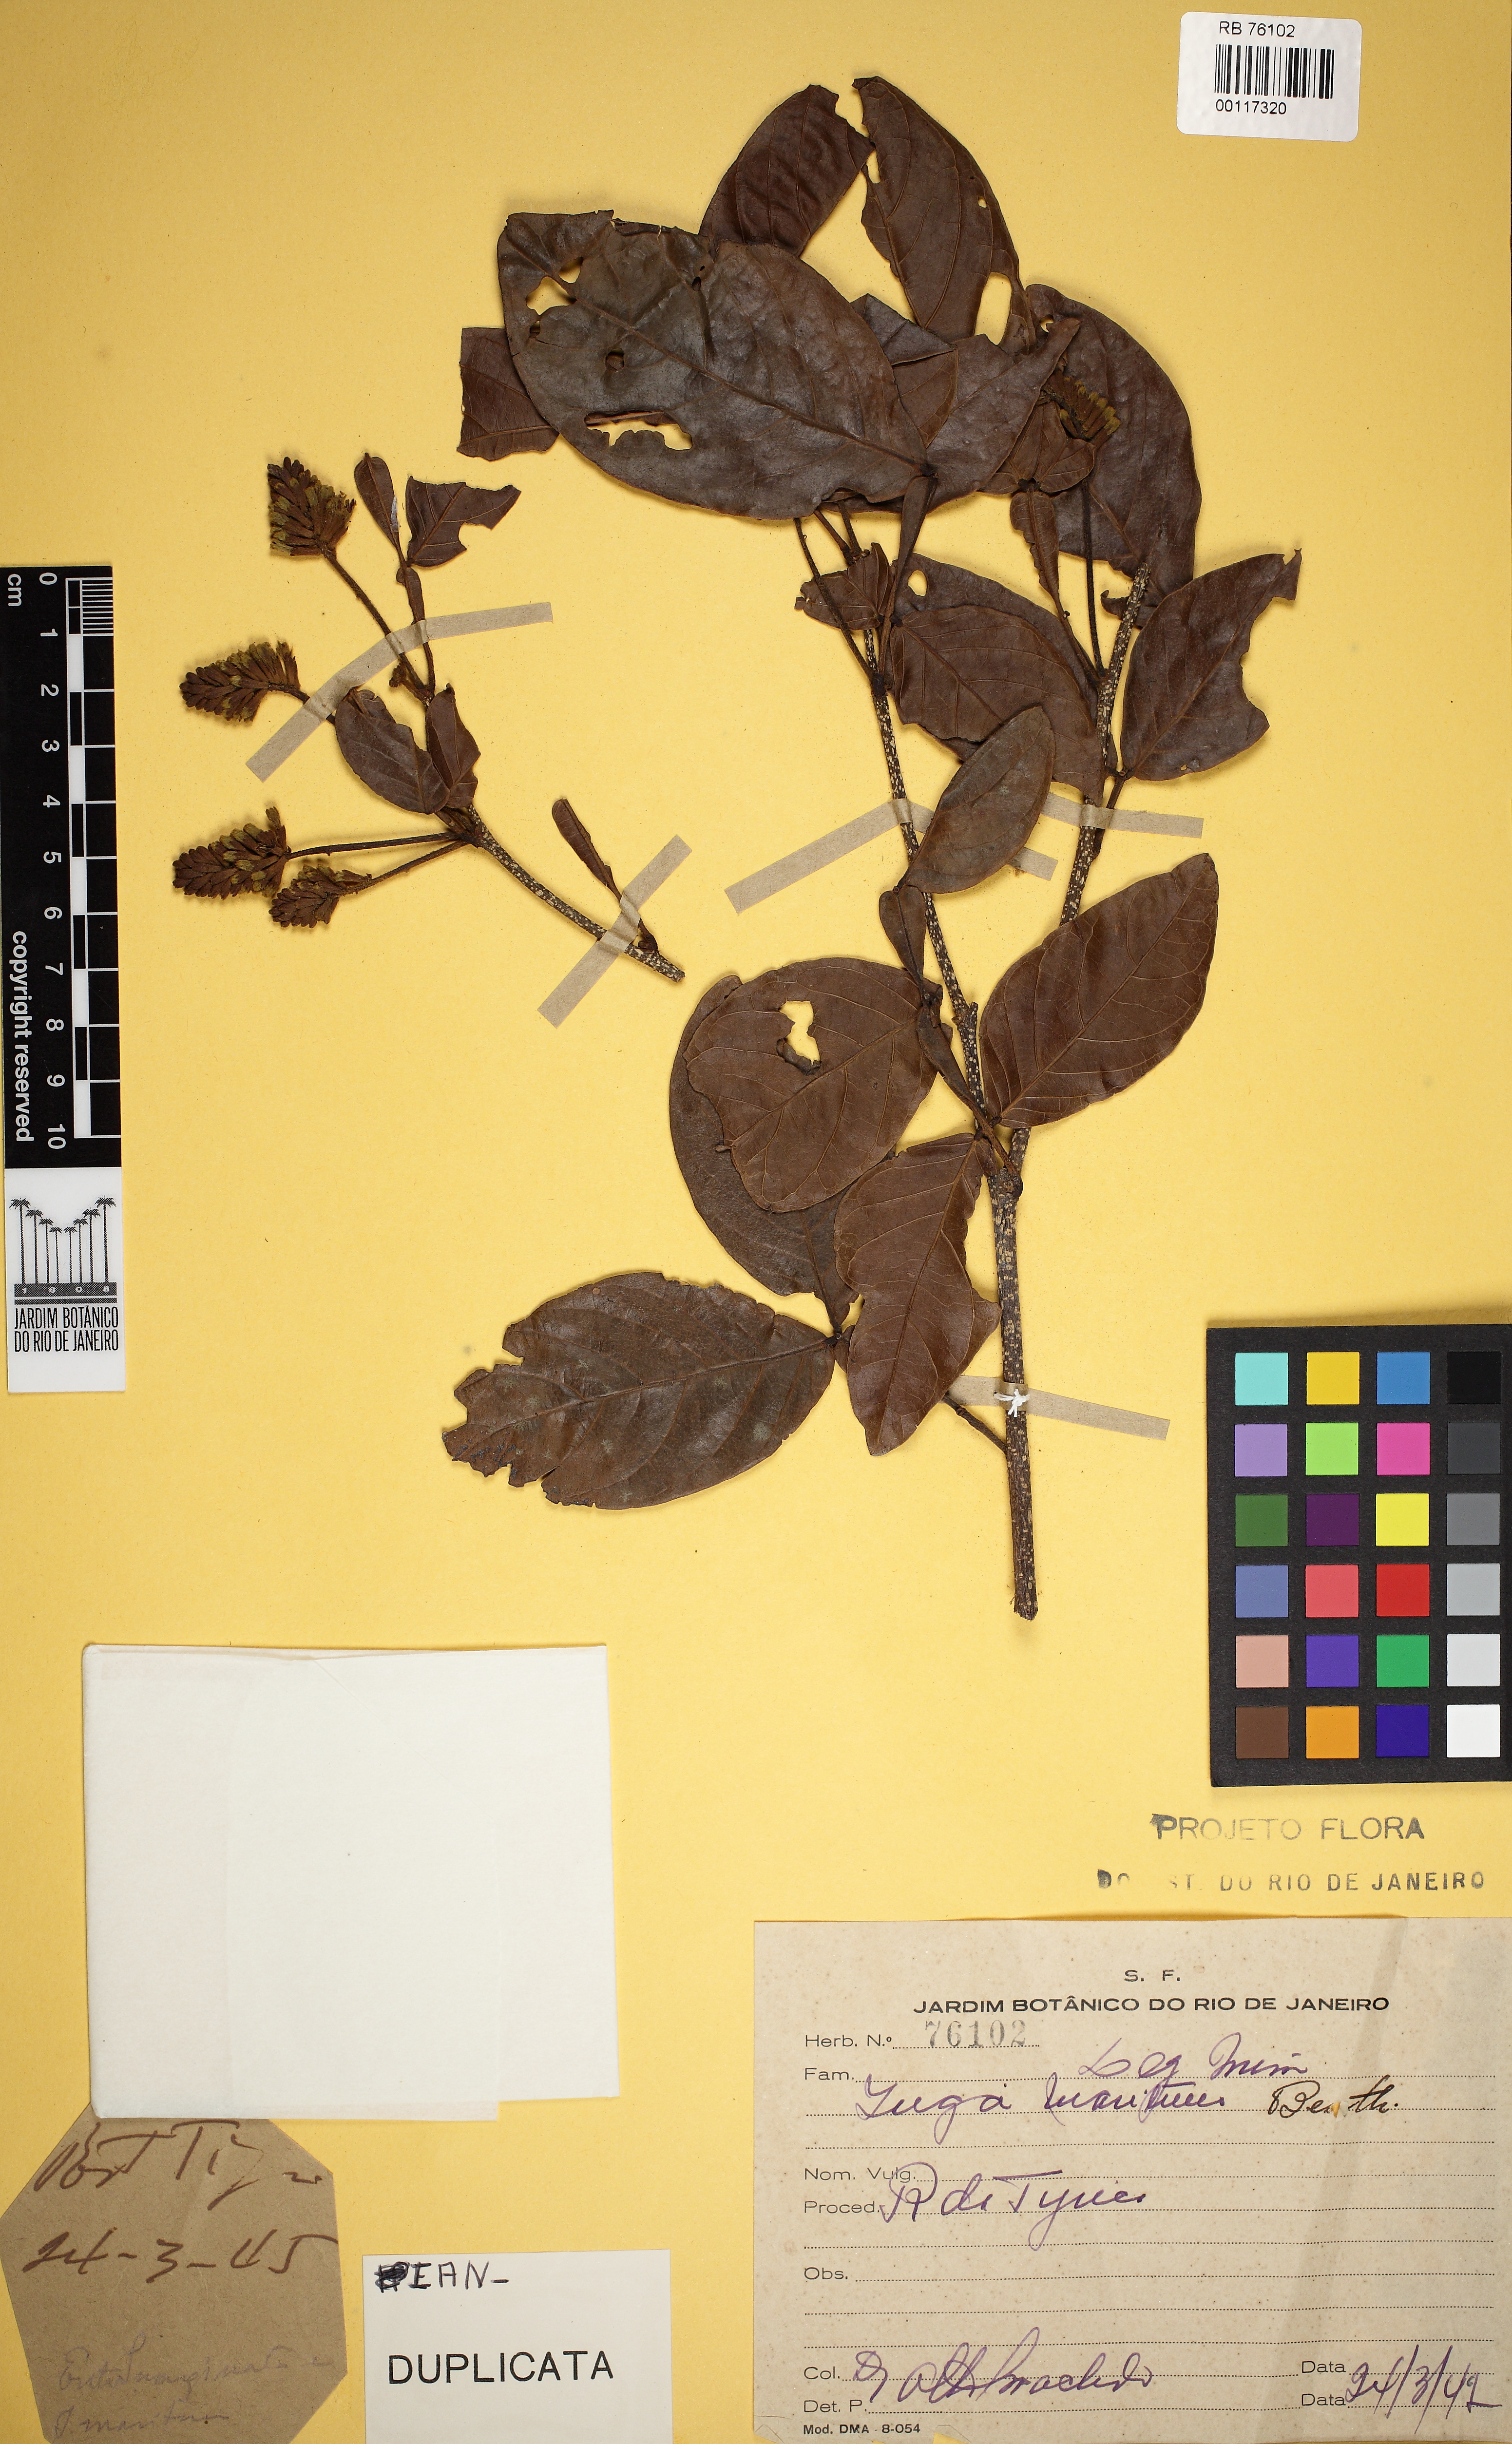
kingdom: Plantae
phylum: Tracheophyta
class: Magnoliopsida
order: Fabales
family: Fabaceae
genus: Inga
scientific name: Inga maritima
